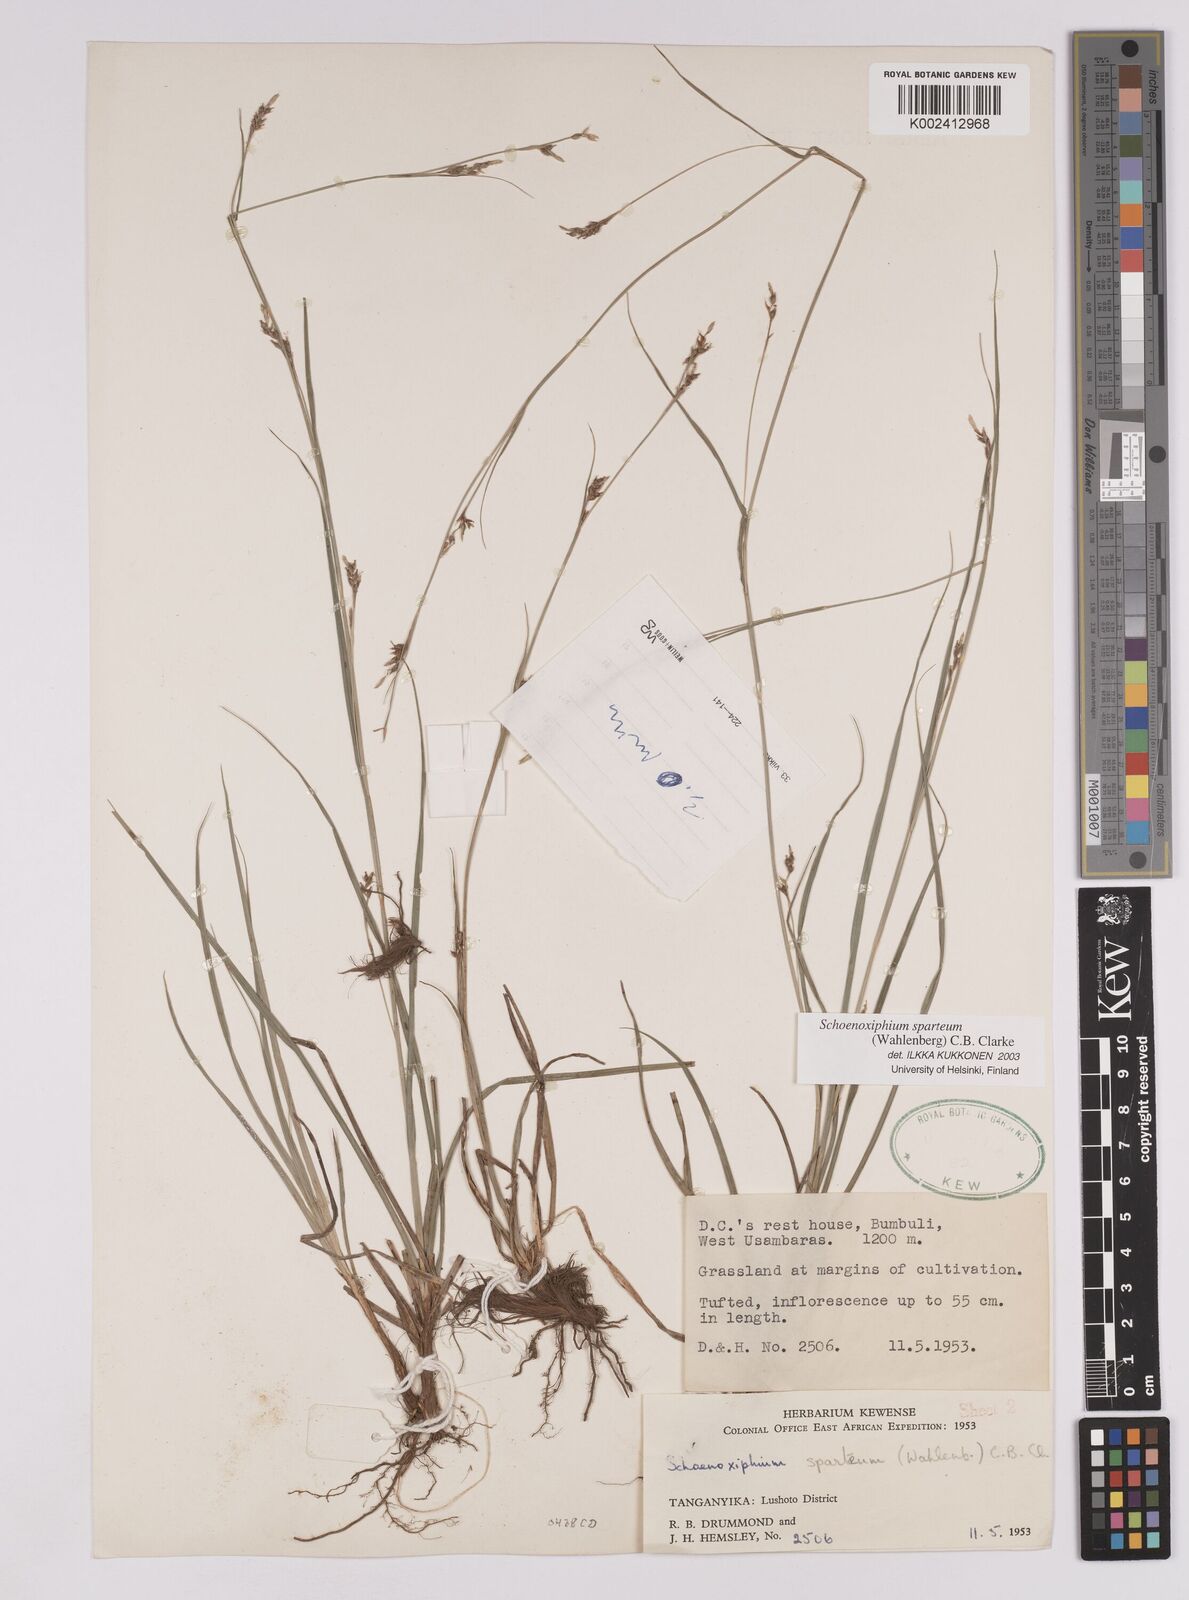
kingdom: Plantae
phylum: Tracheophyta
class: Liliopsida
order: Poales
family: Cyperaceae
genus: Carex
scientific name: Carex spartea
